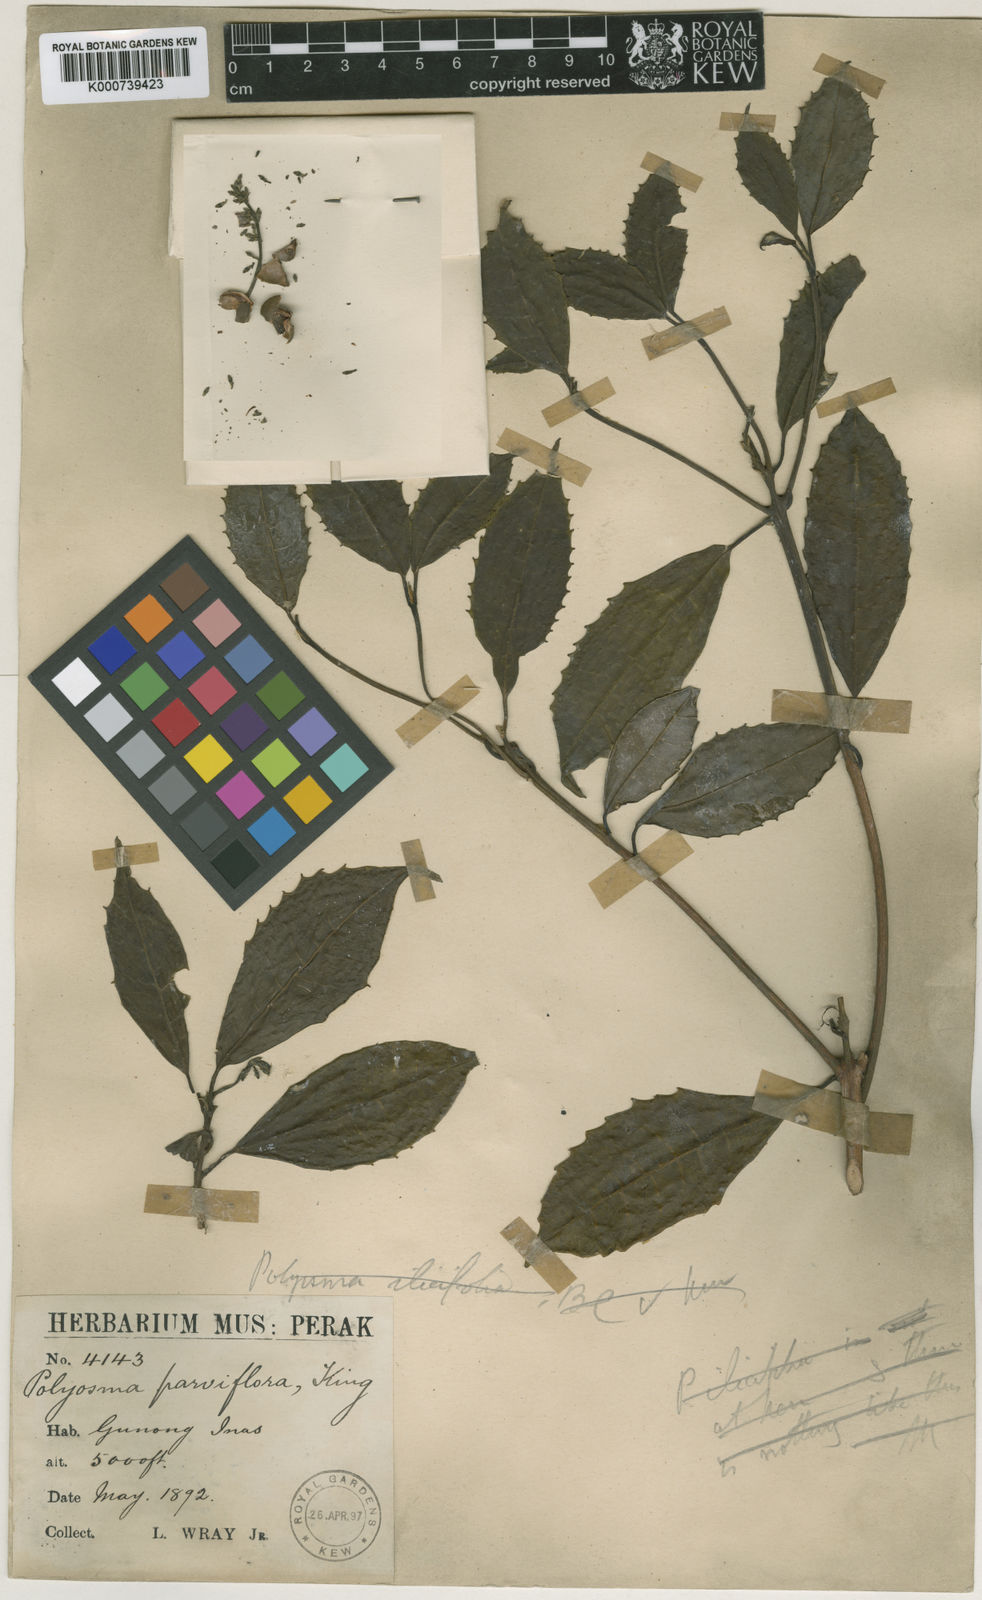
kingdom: Plantae
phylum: Tracheophyta
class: Magnoliopsida
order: Escalloniales
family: Escalloniaceae
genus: Polyosma
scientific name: Polyosma parviflora
